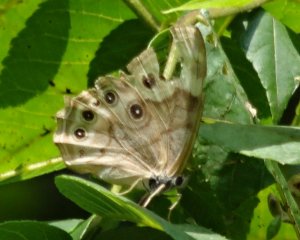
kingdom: Animalia
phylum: Arthropoda
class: Insecta
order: Lepidoptera
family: Nymphalidae
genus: Lethe
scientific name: Lethe anthedon
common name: Northern Pearly-Eye
